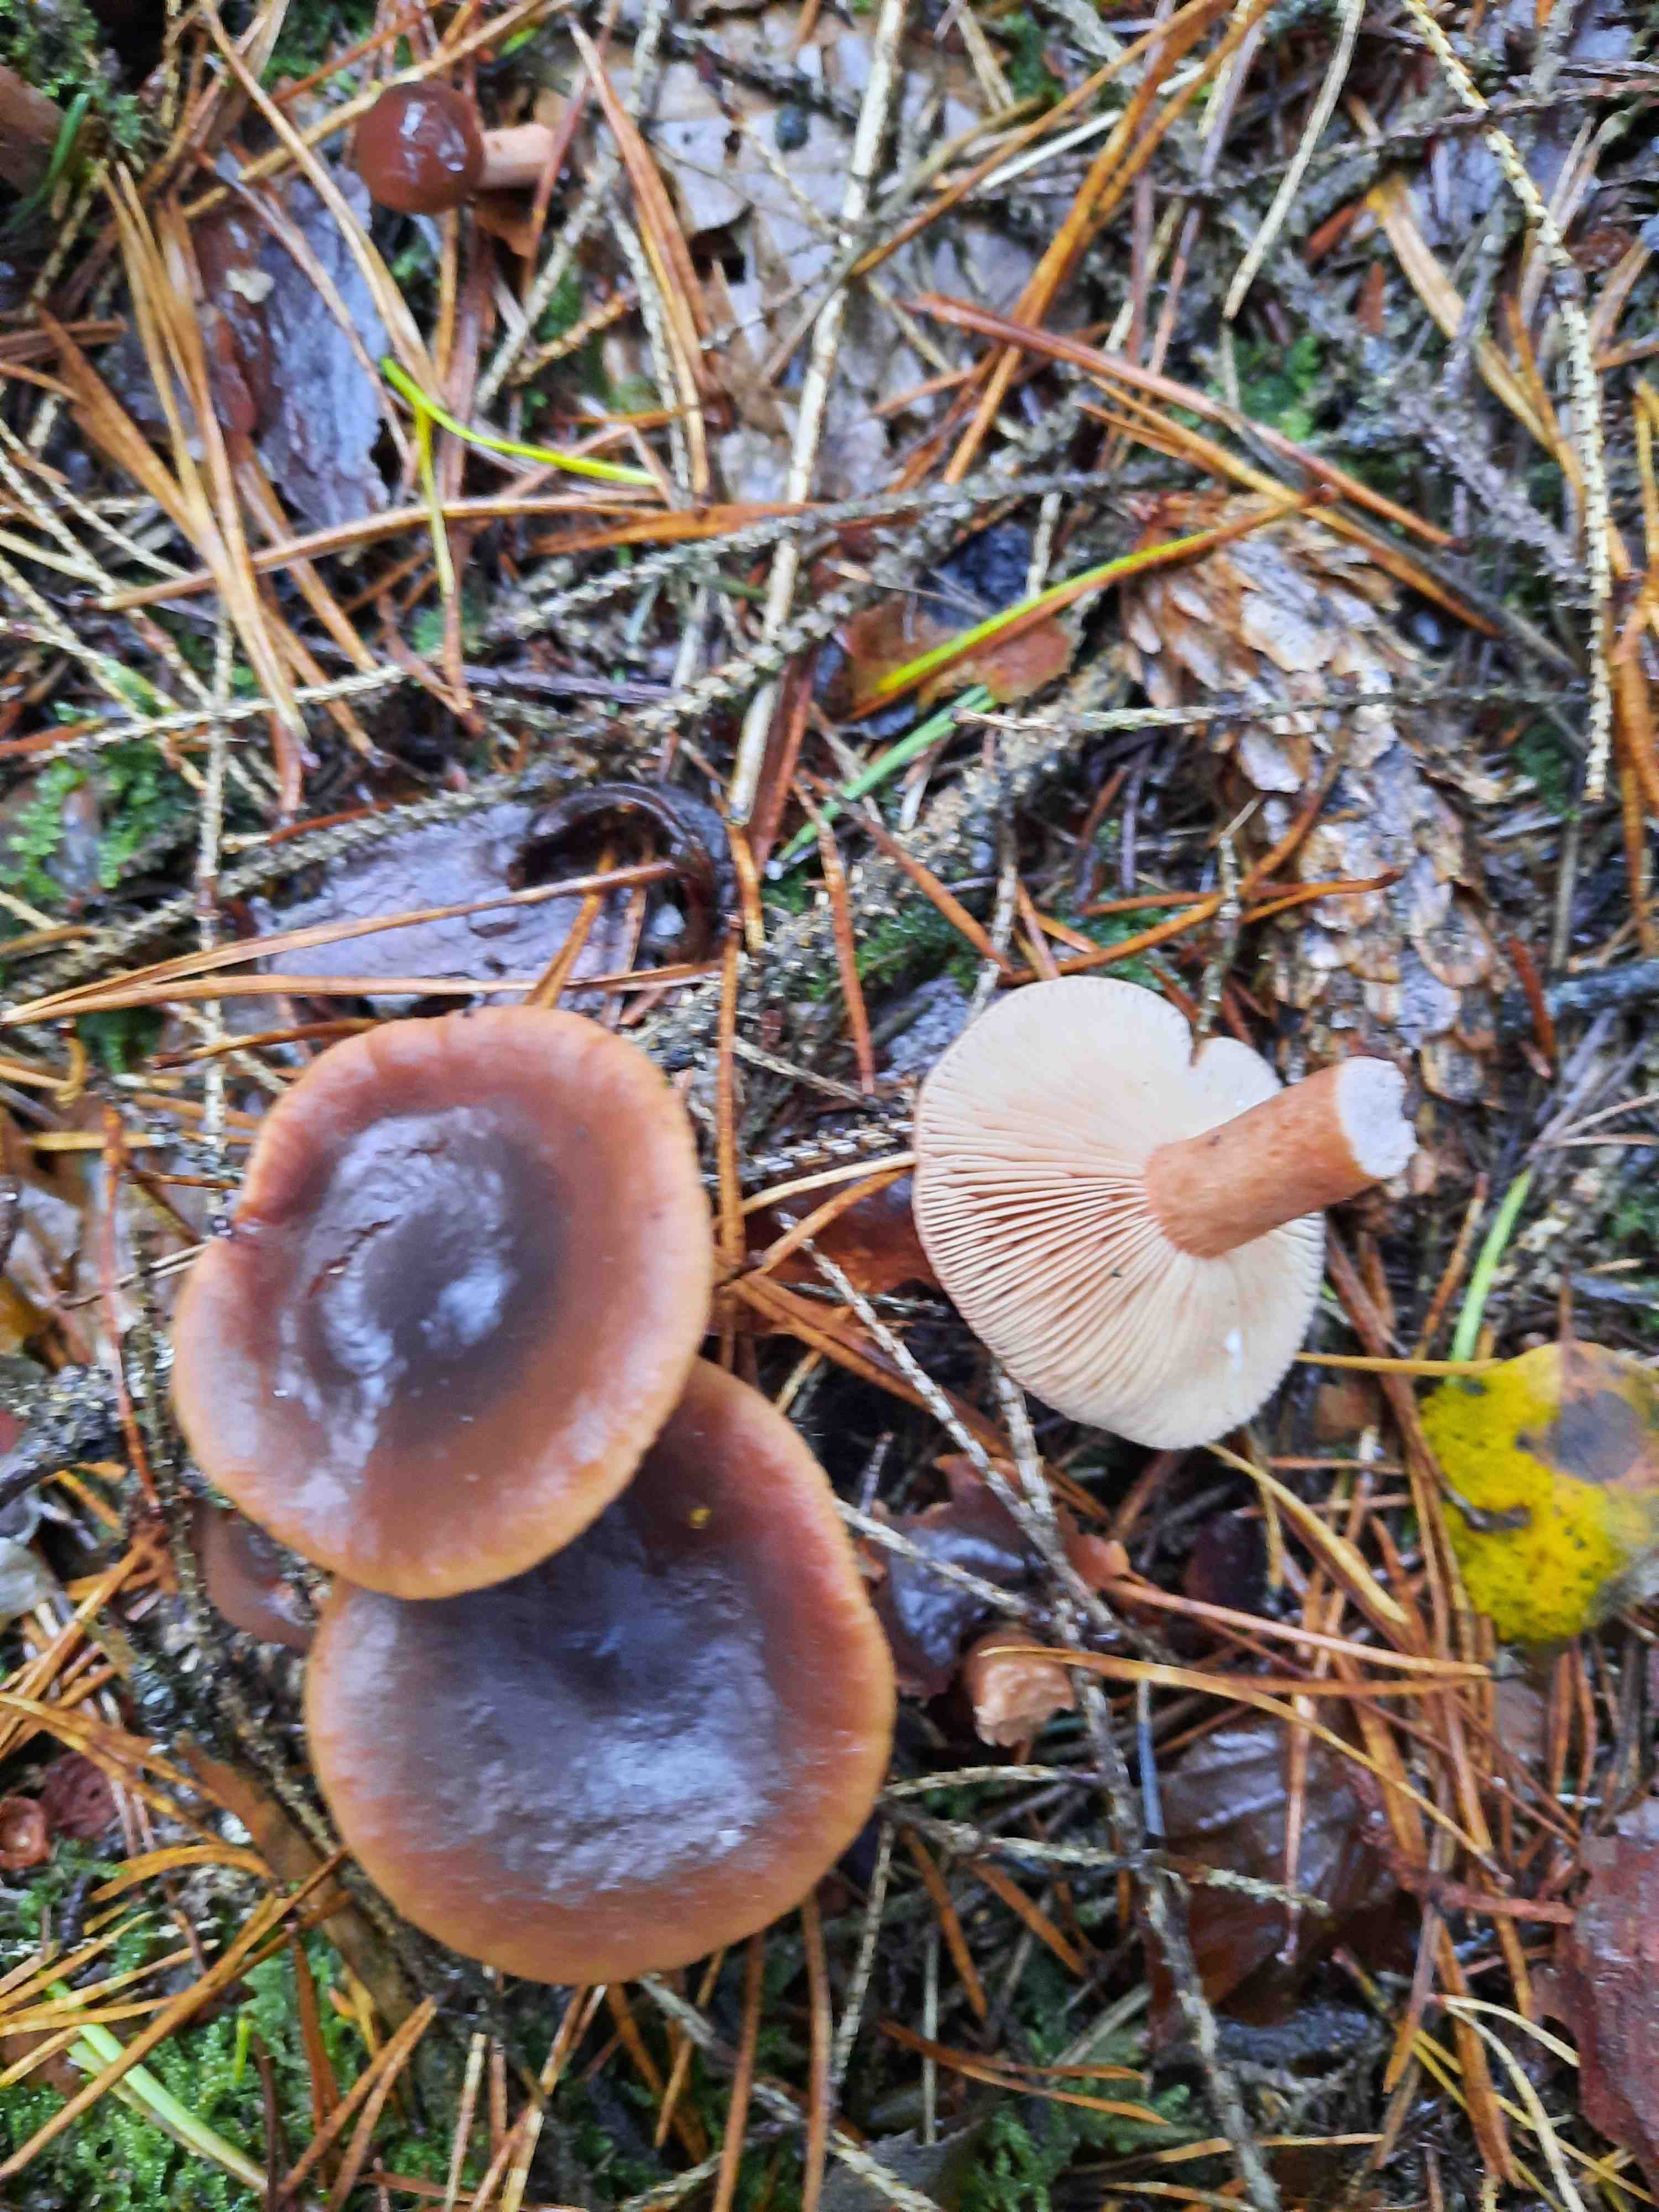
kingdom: Fungi
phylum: Basidiomycota
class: Agaricomycetes
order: Russulales
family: Russulaceae
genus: Lactarius
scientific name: Lactarius hepaticus
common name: leverbrun mælkehat
